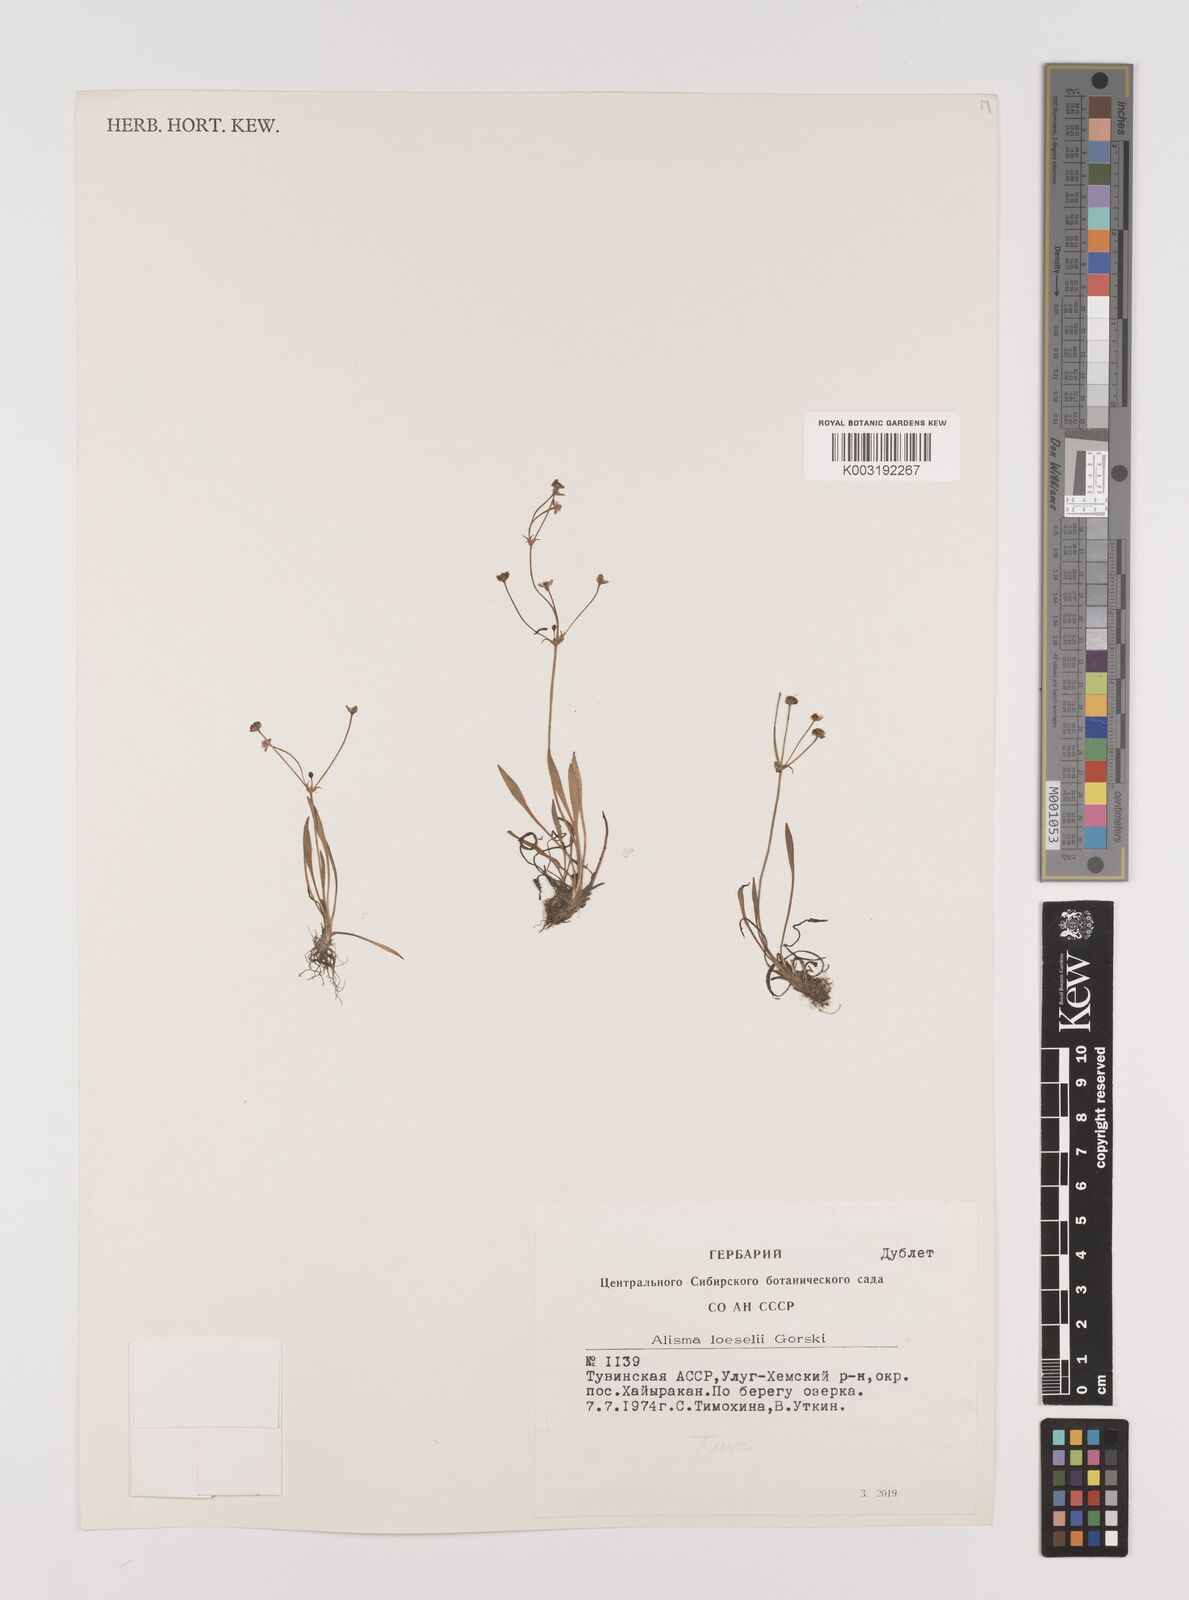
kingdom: Plantae
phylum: Tracheophyta
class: Liliopsida
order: Alismatales
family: Alismataceae
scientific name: Alismataceae
